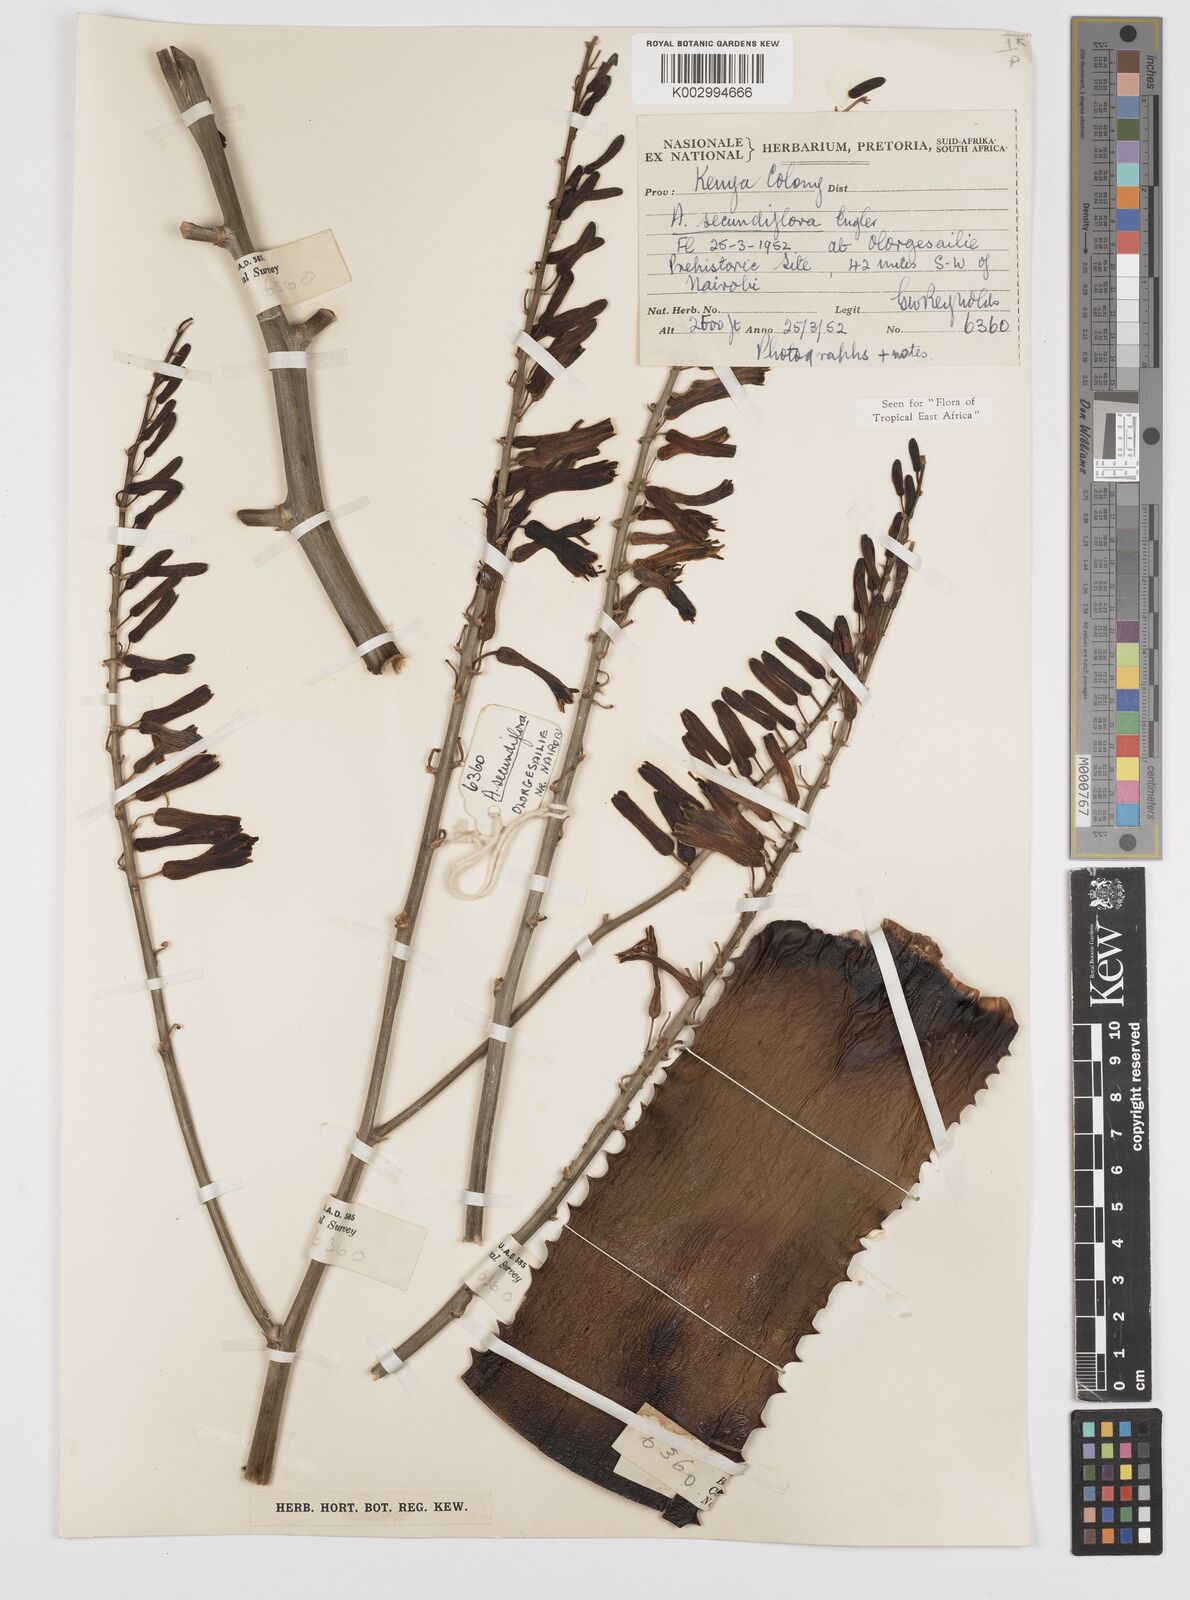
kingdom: Plantae
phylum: Tracheophyta
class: Liliopsida
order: Asparagales
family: Asphodelaceae
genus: Aloe
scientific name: Aloe
